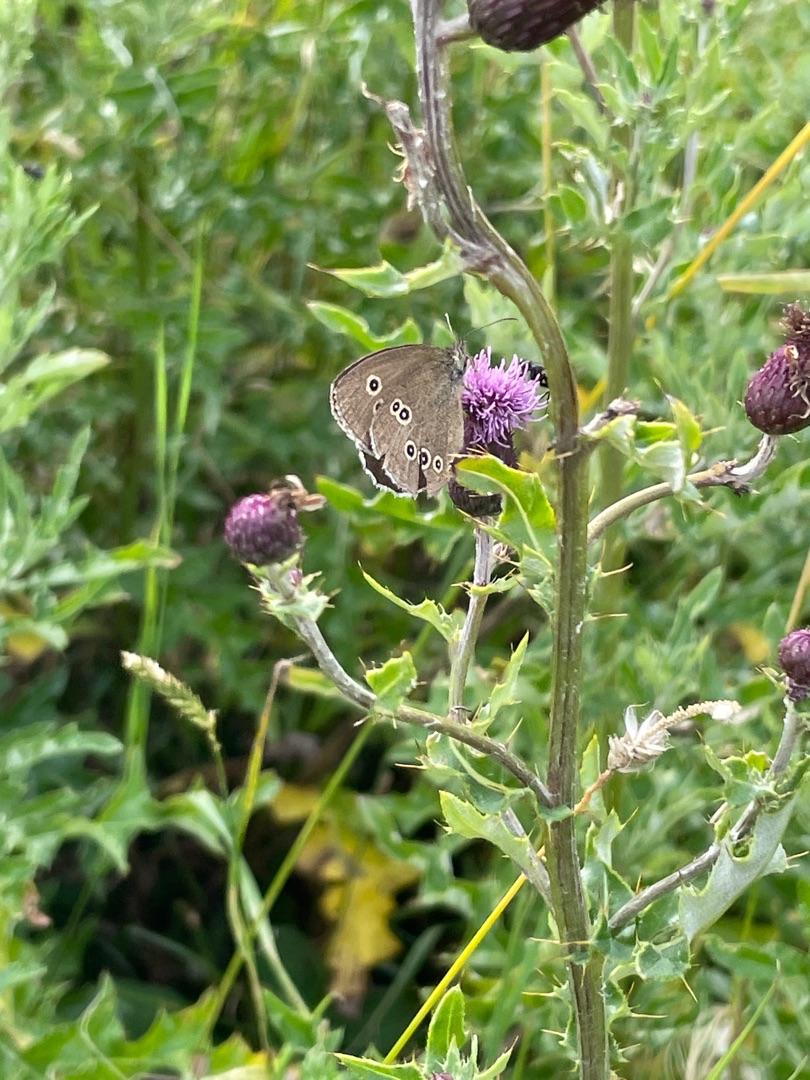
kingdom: Animalia
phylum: Arthropoda
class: Insecta
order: Lepidoptera
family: Nymphalidae
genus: Aphantopus
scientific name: Aphantopus hyperantus
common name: Engrandøje
